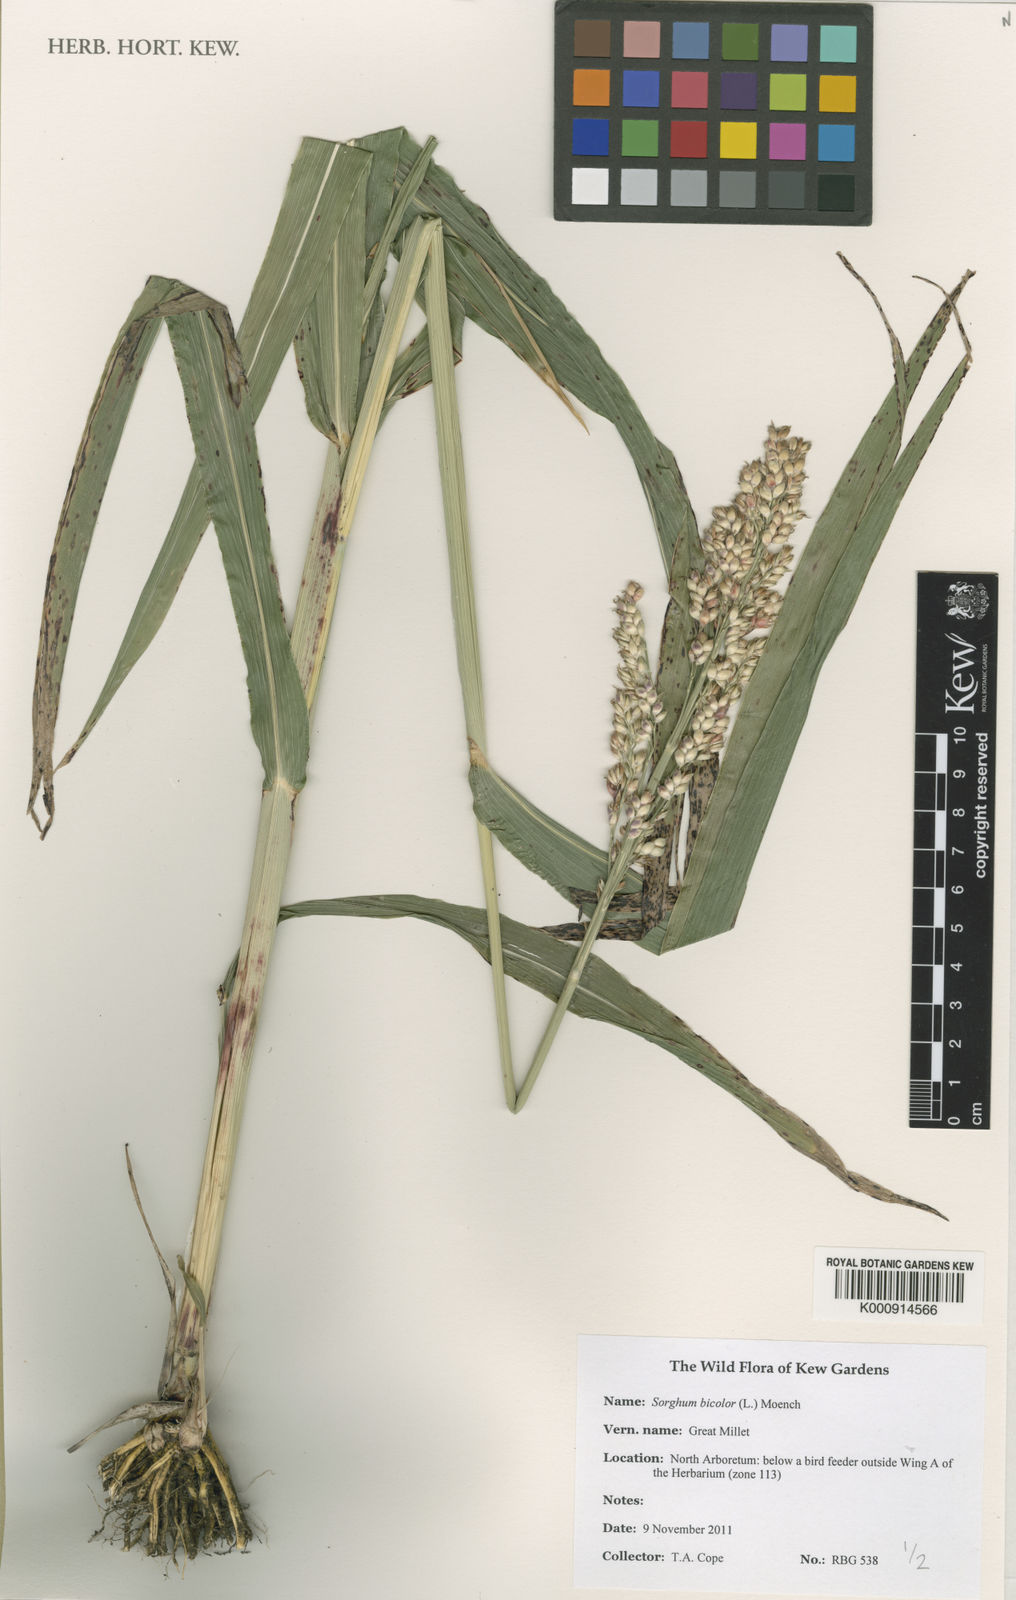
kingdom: Plantae
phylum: Tracheophyta
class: Liliopsida
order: Poales
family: Poaceae
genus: Sorghum
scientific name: Sorghum bicolor
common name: Sorghum
